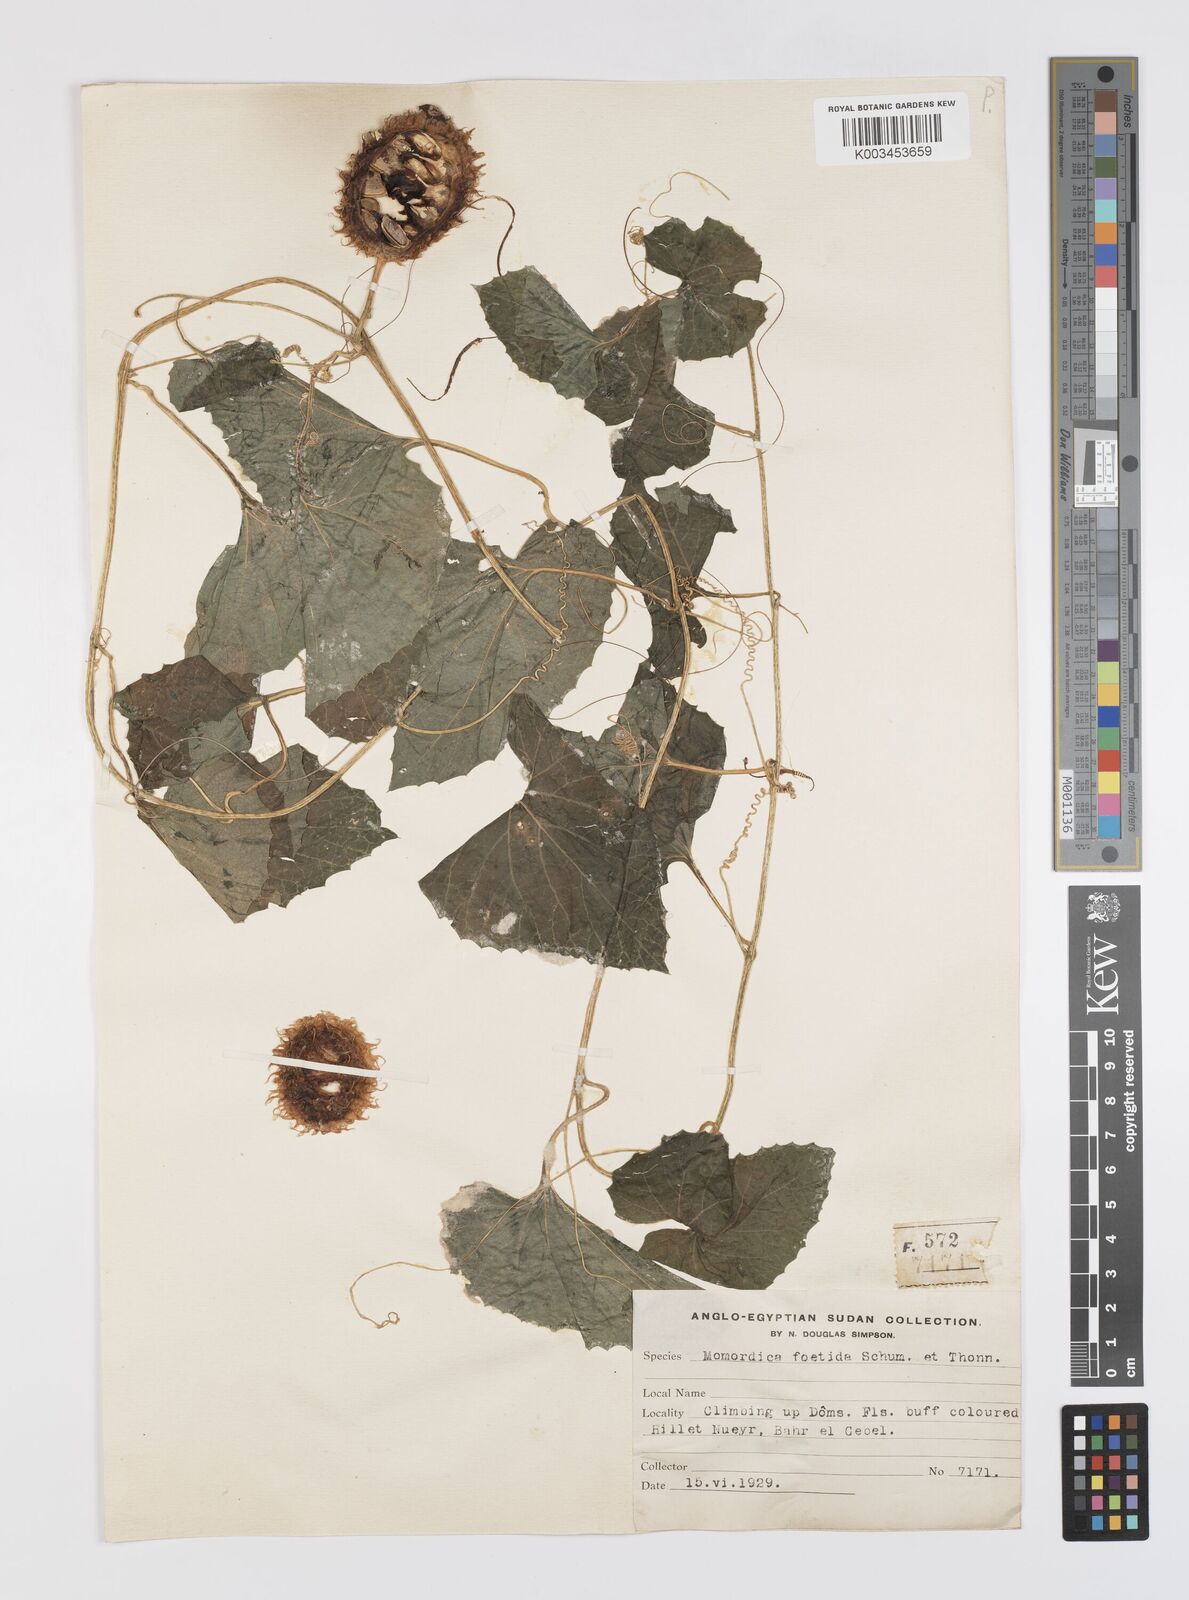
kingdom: Plantae
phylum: Tracheophyta
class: Magnoliopsida
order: Cucurbitales
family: Cucurbitaceae
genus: Momordica
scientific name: Momordica foetida
